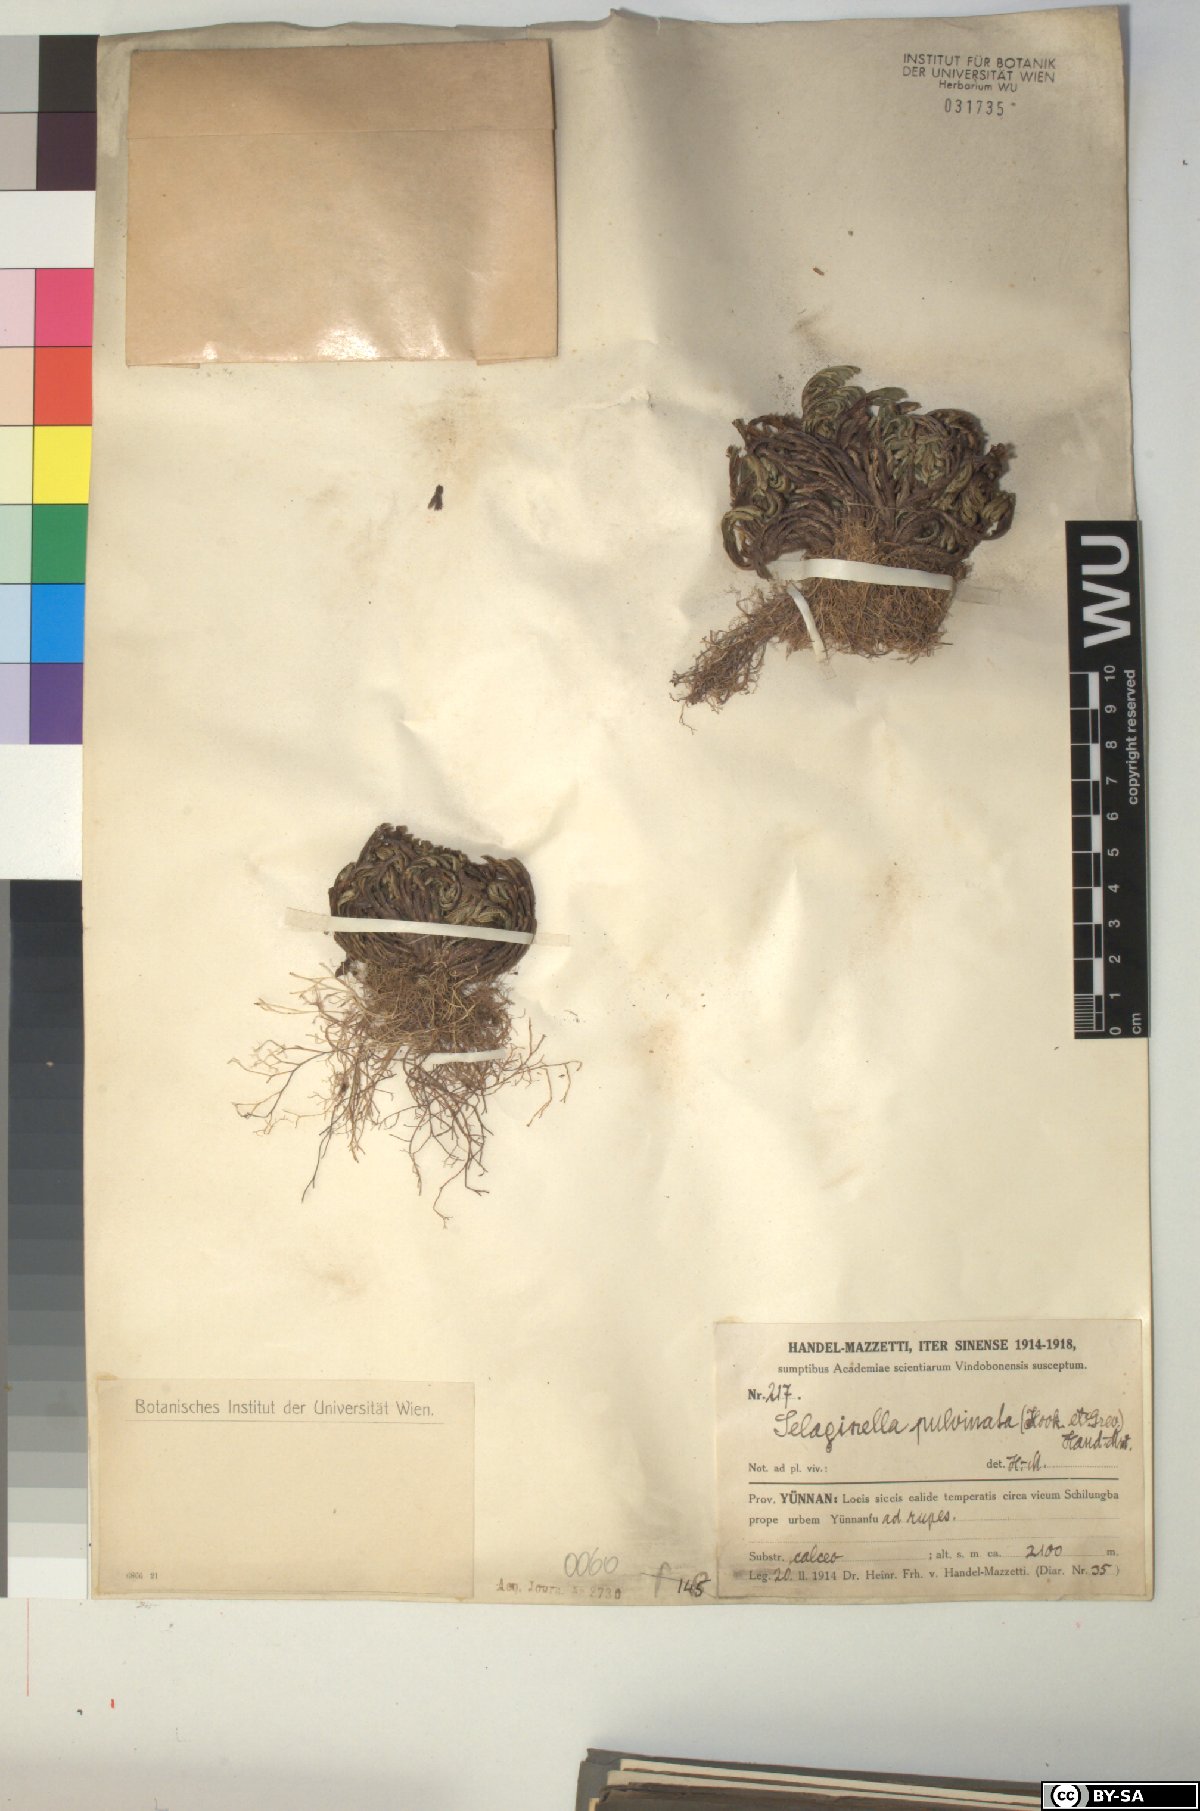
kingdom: Plantae
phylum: Tracheophyta
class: Lycopodiopsida
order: Selaginellales
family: Selaginellaceae
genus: Selaginella
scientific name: Selaginella pulvinata
